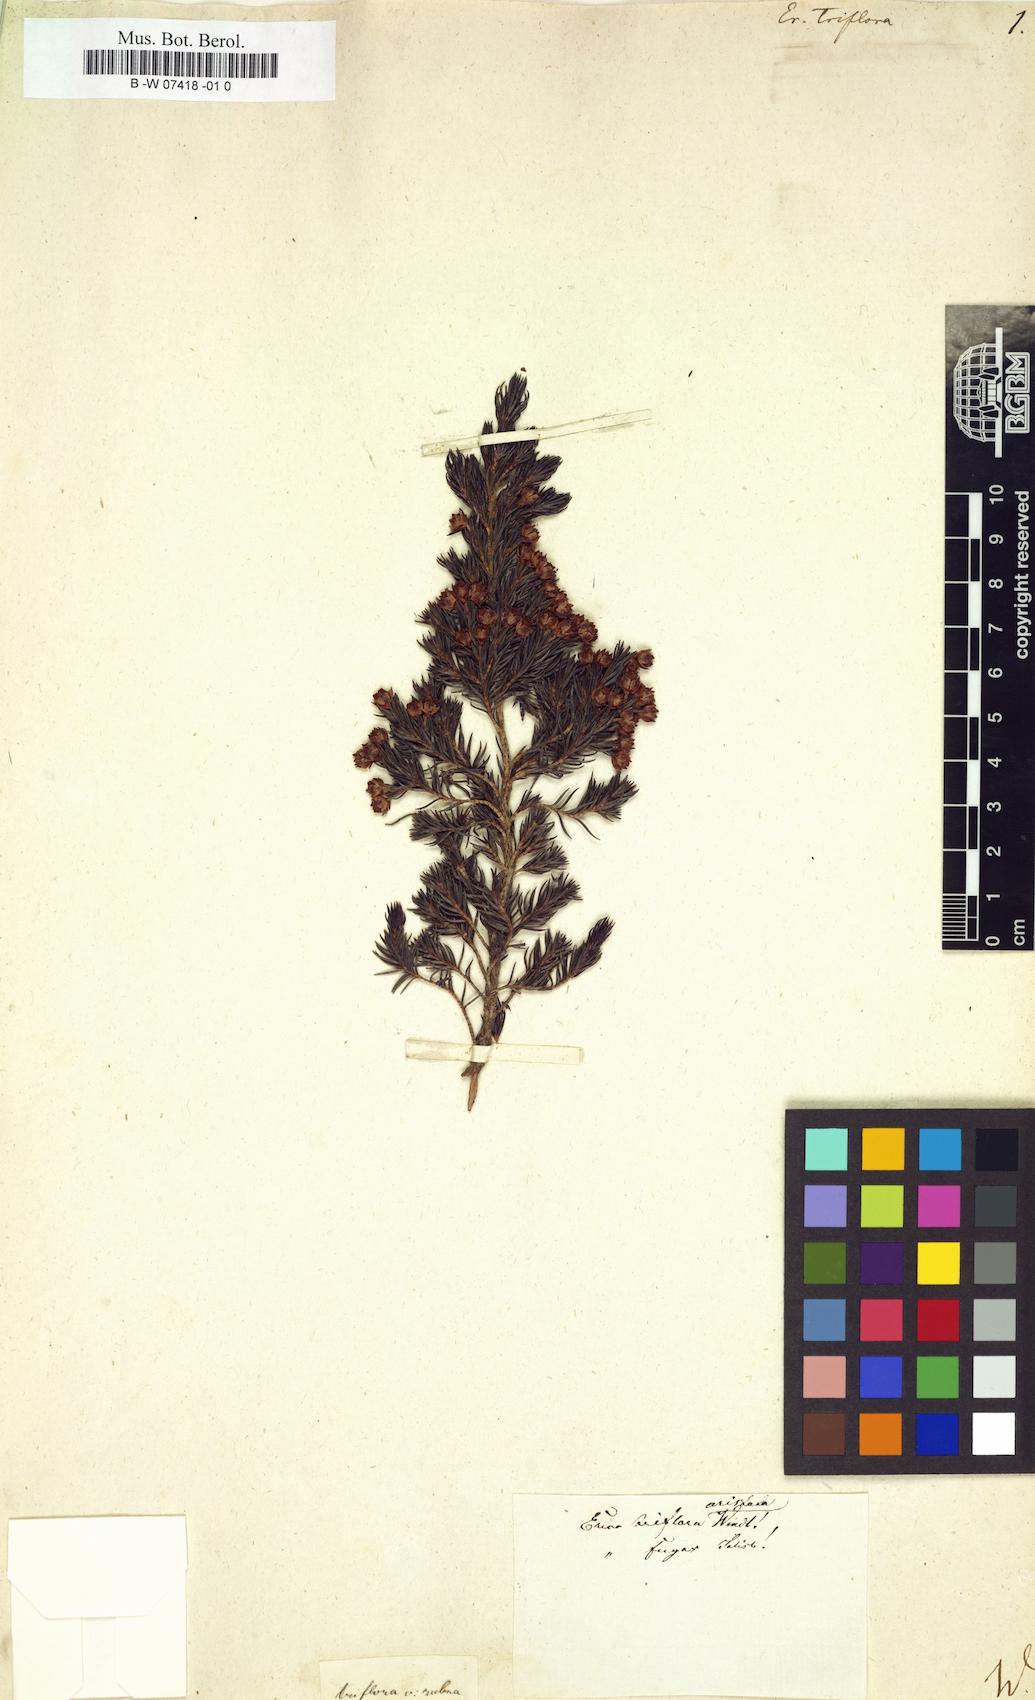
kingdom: Plantae
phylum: Tracheophyta
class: Magnoliopsida
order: Ericales
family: Ericaceae
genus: Erica
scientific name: Erica triflora
